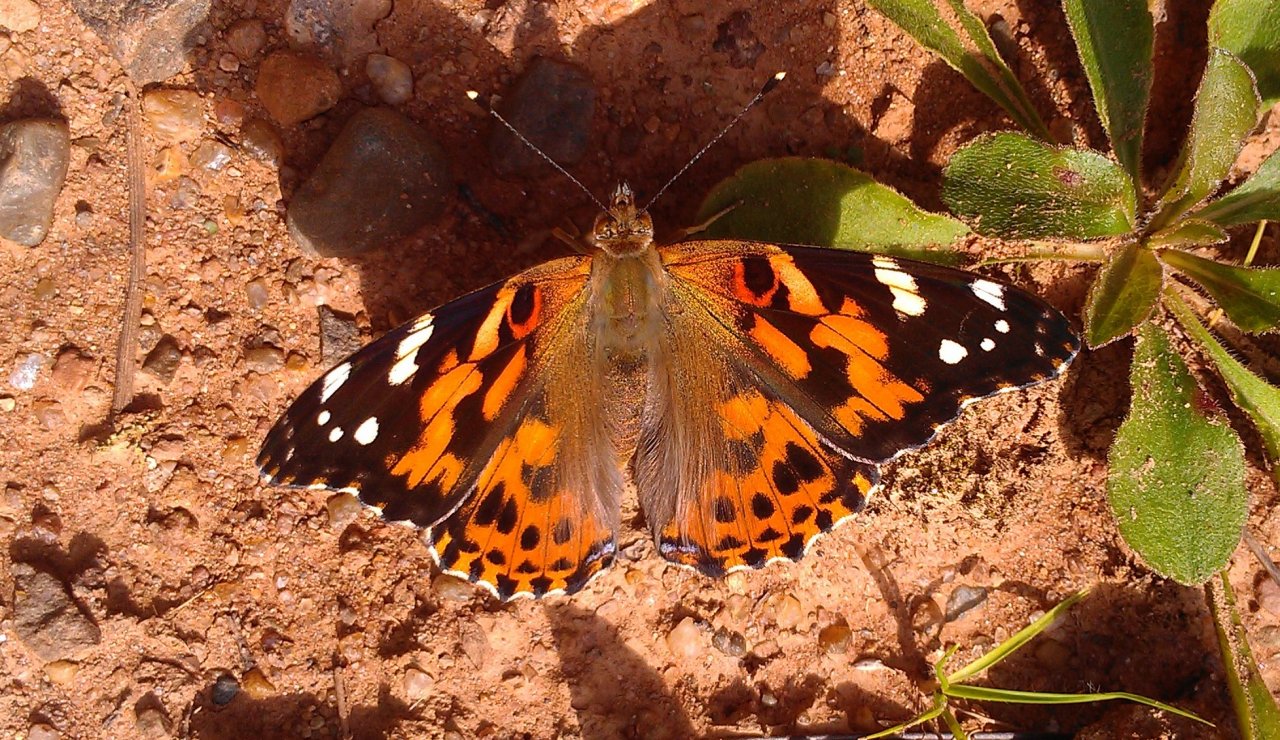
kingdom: Animalia
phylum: Arthropoda
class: Insecta
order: Lepidoptera
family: Nymphalidae
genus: Vanessa
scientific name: Vanessa cardui
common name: Painted Lady
